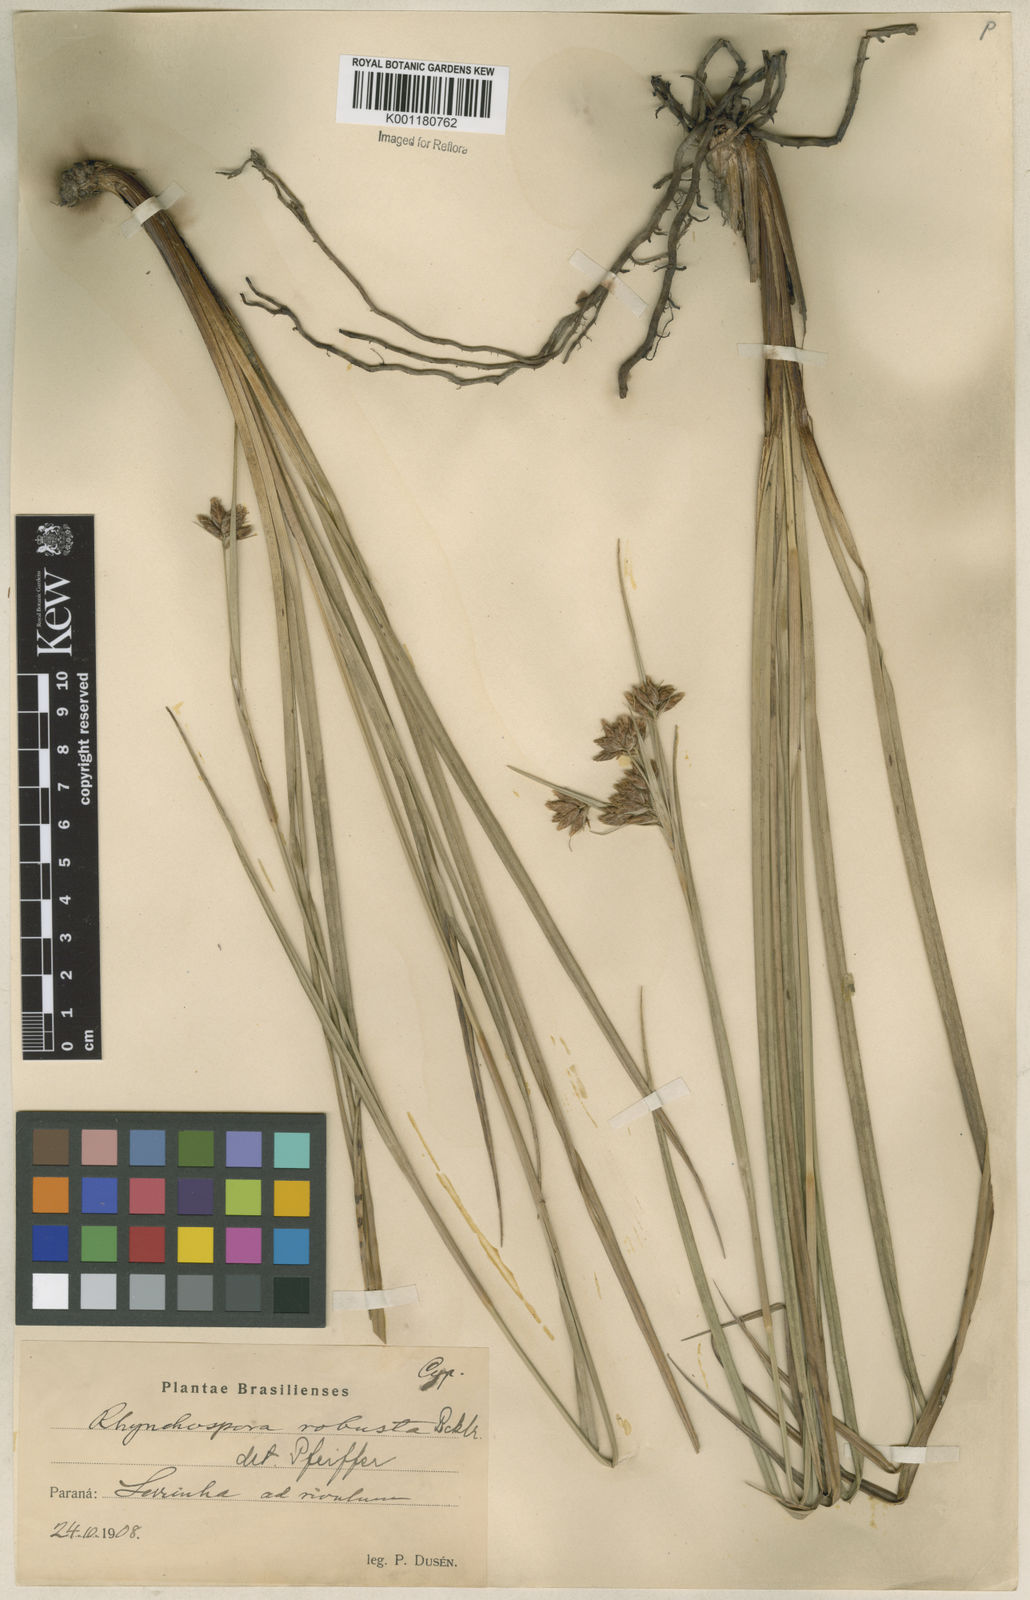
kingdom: Plantae
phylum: Tracheophyta
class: Liliopsida
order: Poales
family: Cyperaceae
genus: Rhynchospora
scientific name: Rhynchospora robusta
